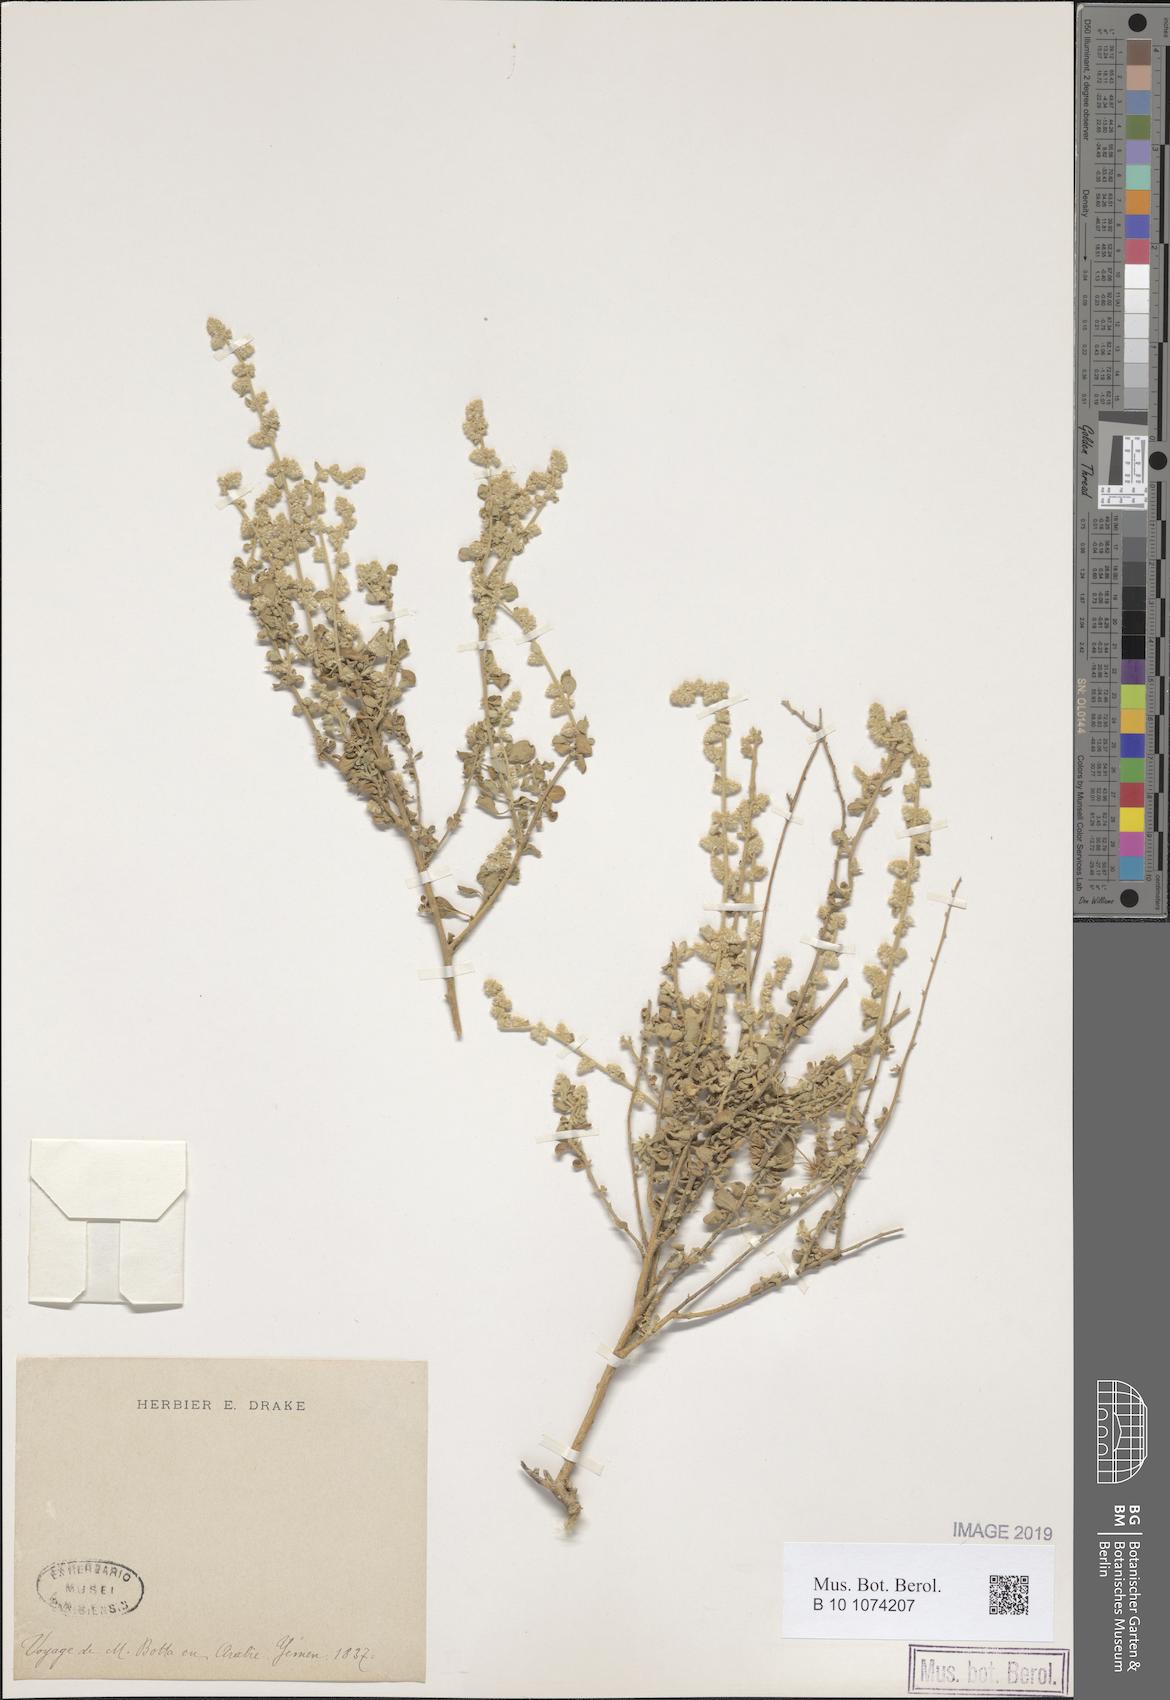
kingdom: Plantae
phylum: Tracheophyta
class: Magnoliopsida
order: Caryophyllales
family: Amaranthaceae
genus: Ouret
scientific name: Ouret lanata
